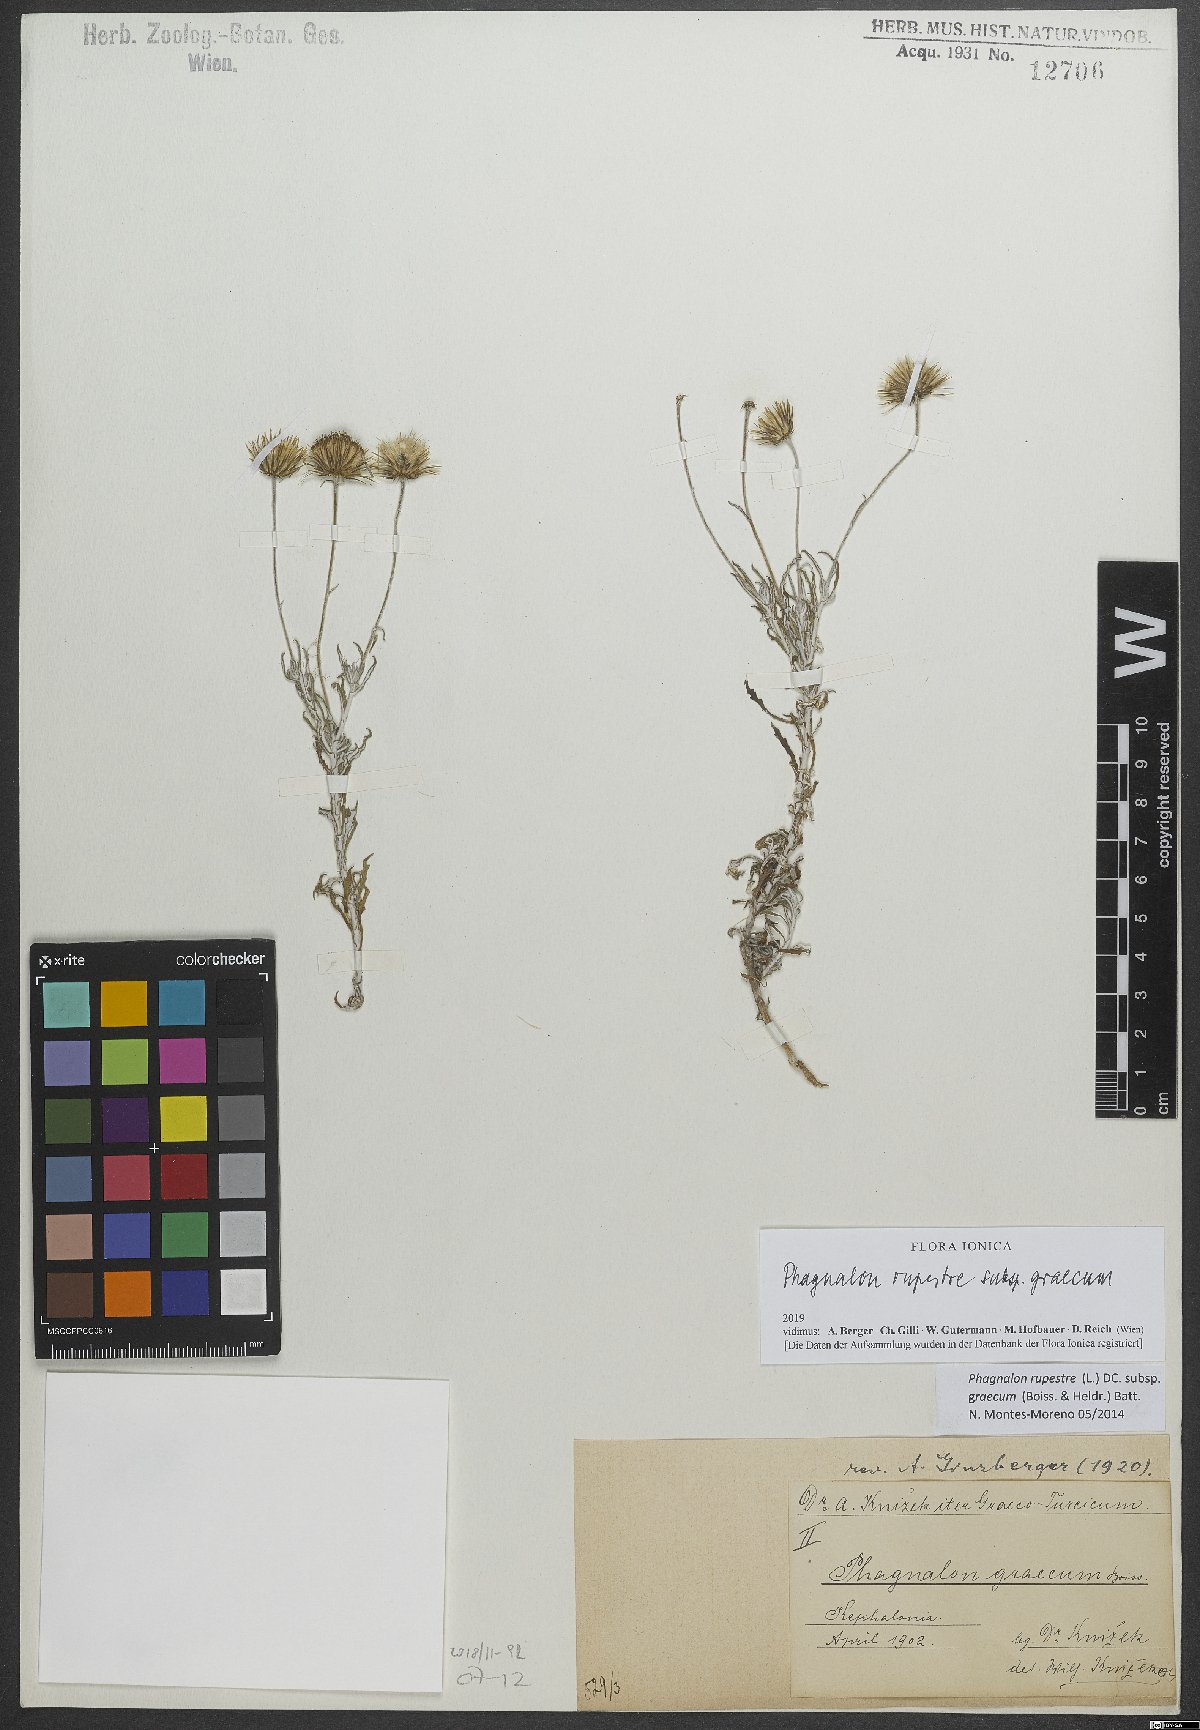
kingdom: Plantae
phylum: Tracheophyta
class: Magnoliopsida
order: Asterales
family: Asteraceae
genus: Phagnalon
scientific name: Phagnalon graecum
